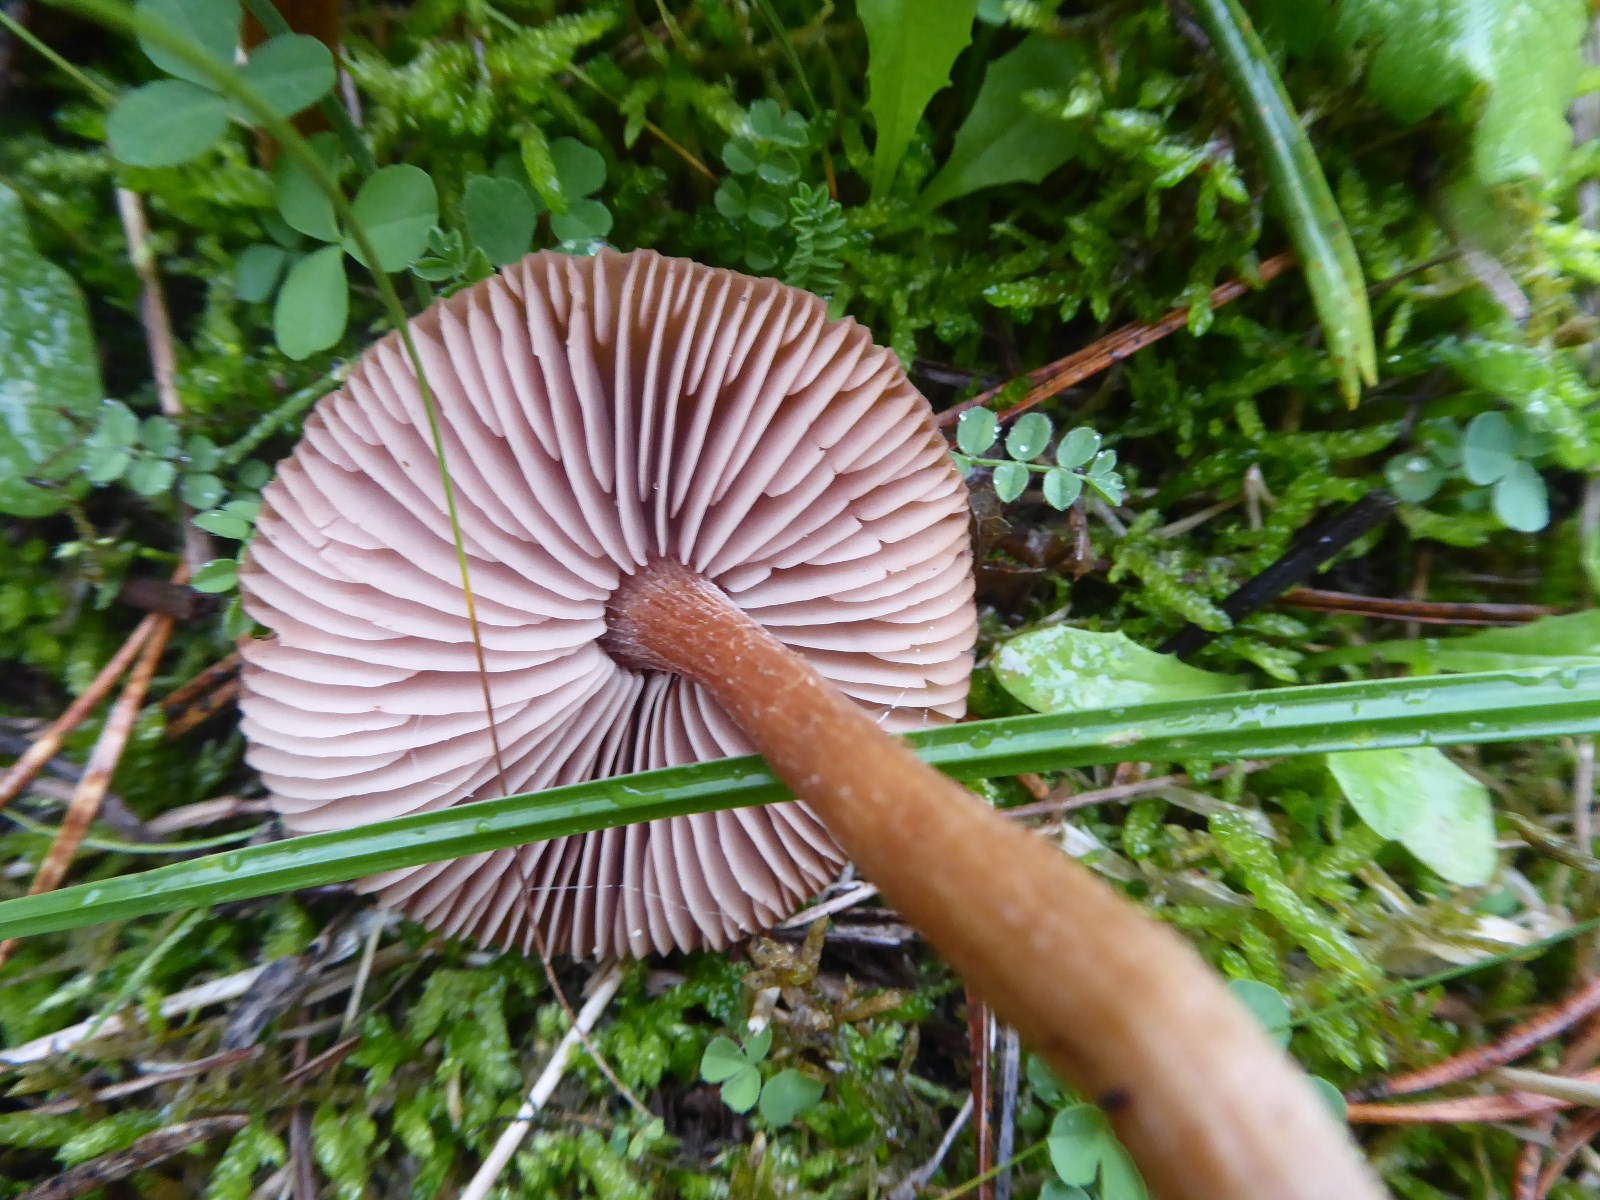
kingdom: Fungi
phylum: Basidiomycota
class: Agaricomycetes
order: Agaricales
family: Hydnangiaceae
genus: Laccaria
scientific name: Laccaria bicolor
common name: tvefarvet ametysthat
